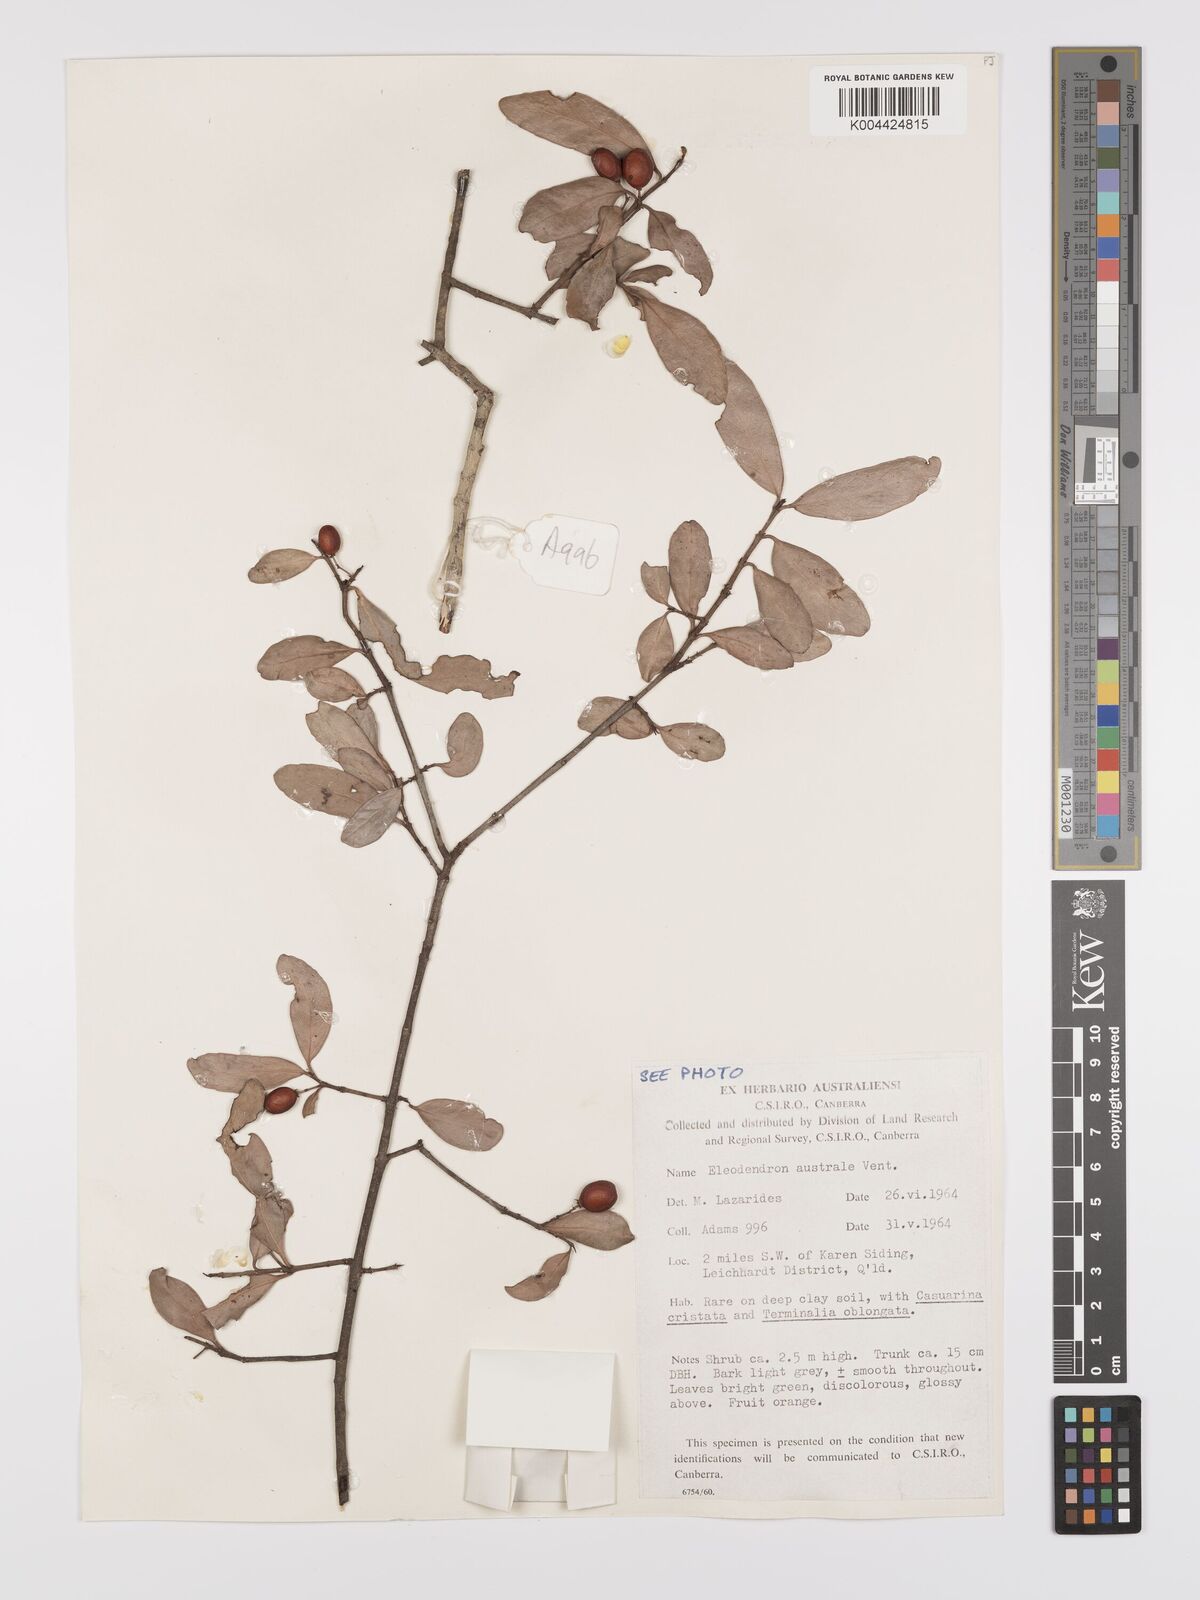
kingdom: Plantae
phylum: Tracheophyta
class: Magnoliopsida
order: Celastrales
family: Celastraceae
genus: Elaeodendron
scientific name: Elaeodendron australe
